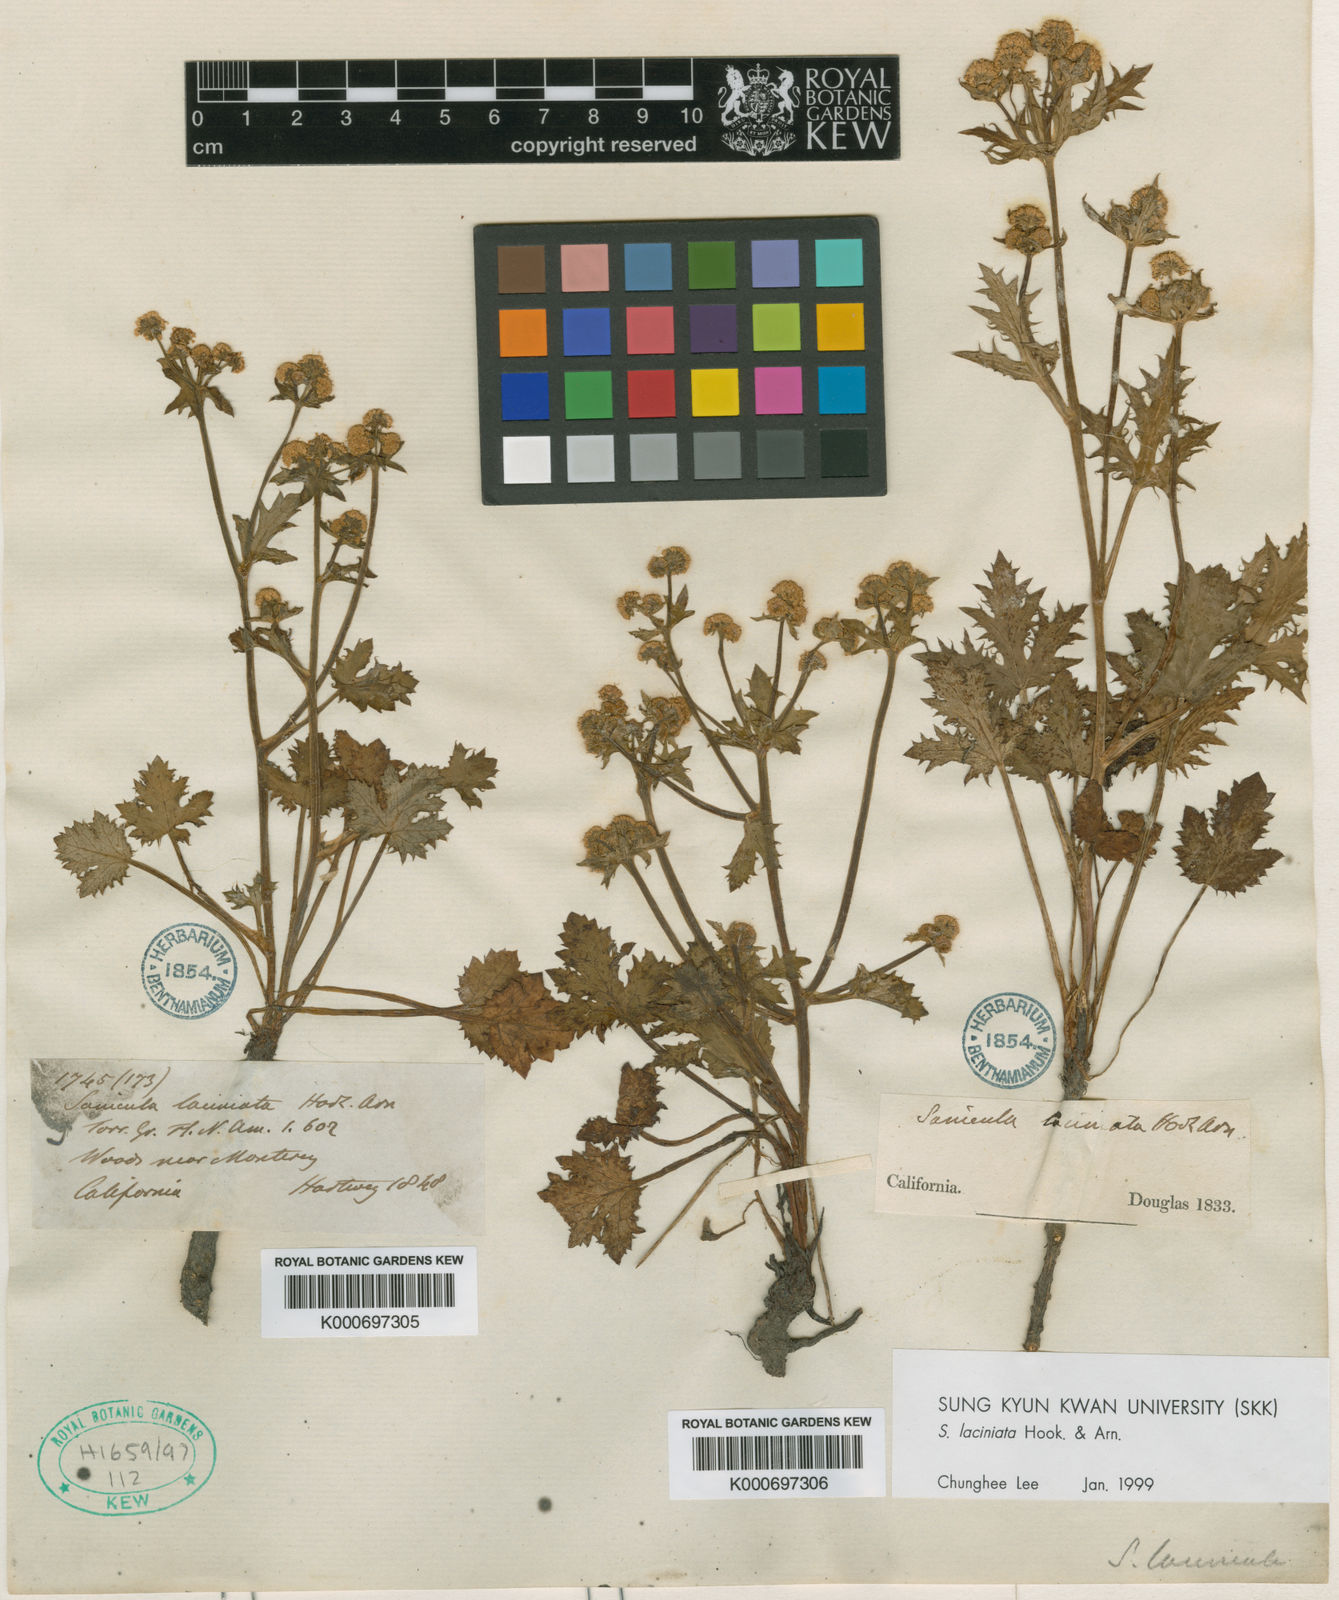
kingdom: Plantae
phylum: Tracheophyta
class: Magnoliopsida
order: Apiales
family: Apiaceae
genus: Sanicula
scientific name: Sanicula laciniata
